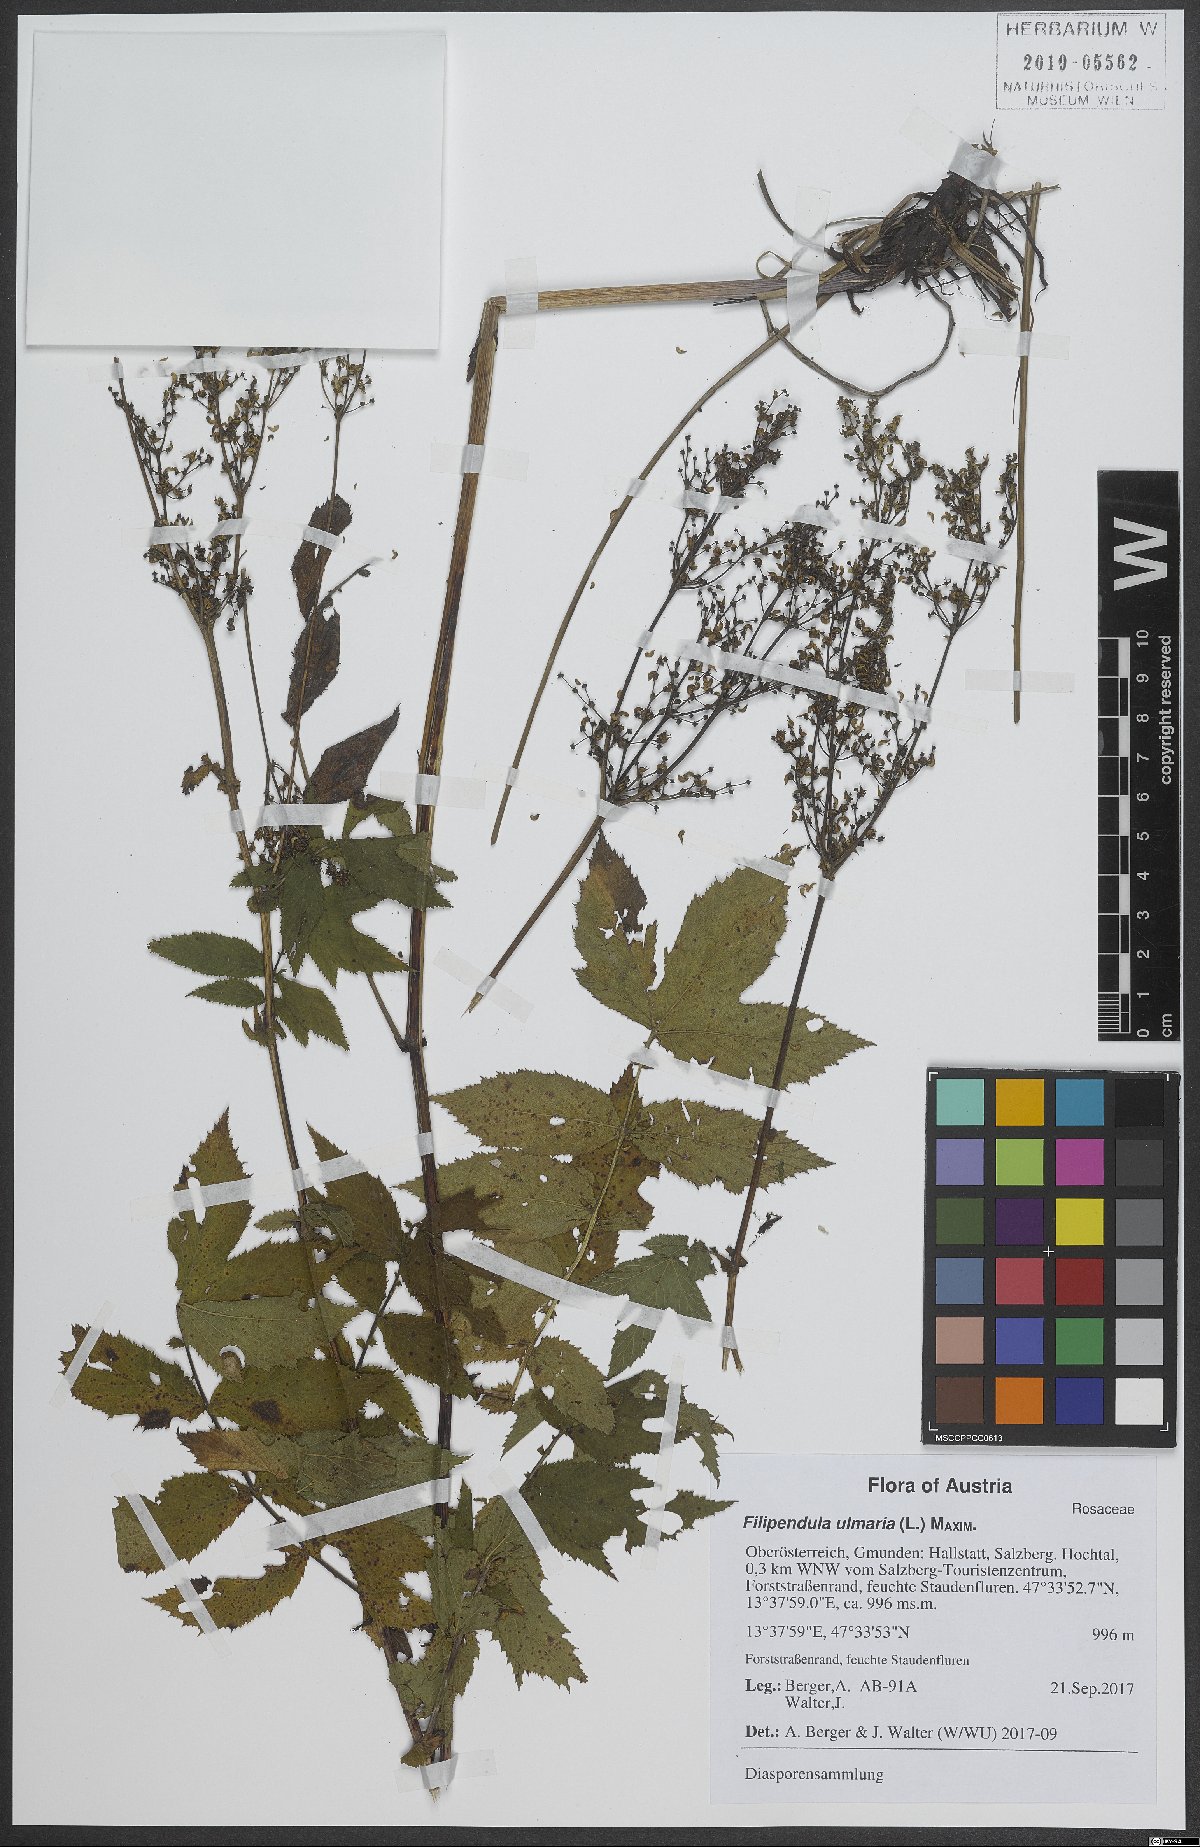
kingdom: Plantae
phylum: Tracheophyta
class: Magnoliopsida
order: Rosales
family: Rosaceae
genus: Filipendula
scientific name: Filipendula ulmaria
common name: Meadowsweet
